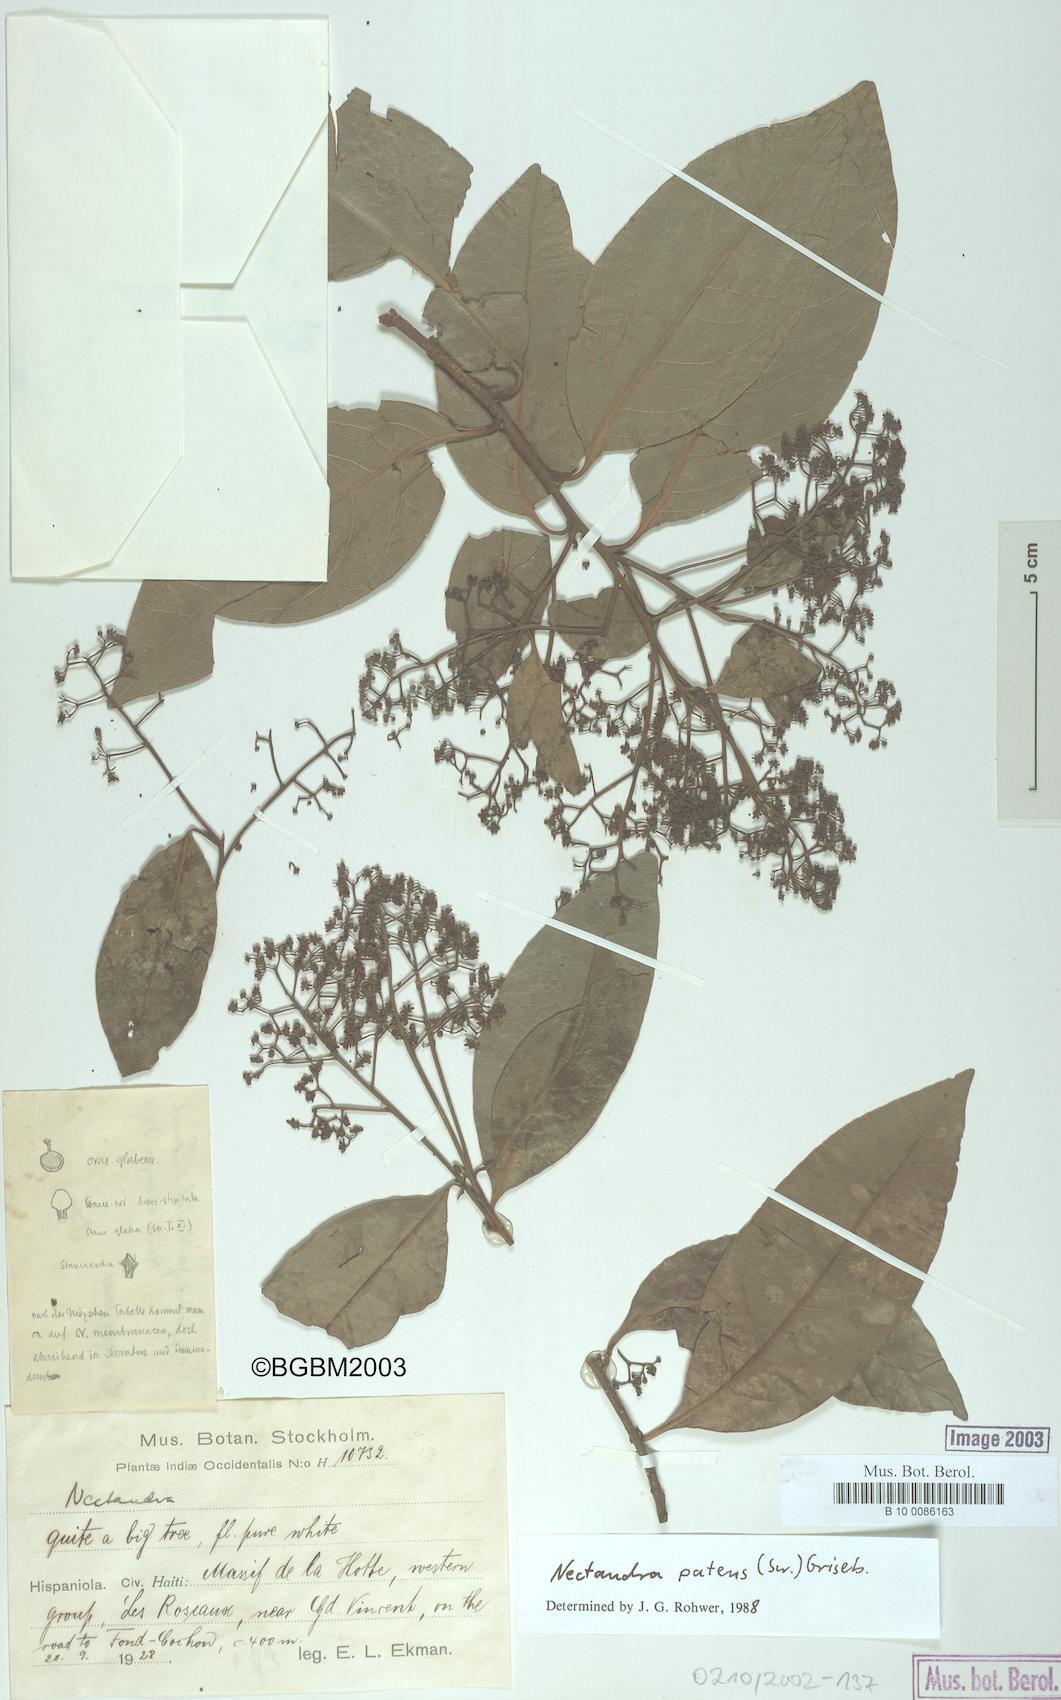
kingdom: Plantae
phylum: Tracheophyta
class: Magnoliopsida
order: Laurales
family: Lauraceae
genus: Damburneya
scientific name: Damburneya patens
